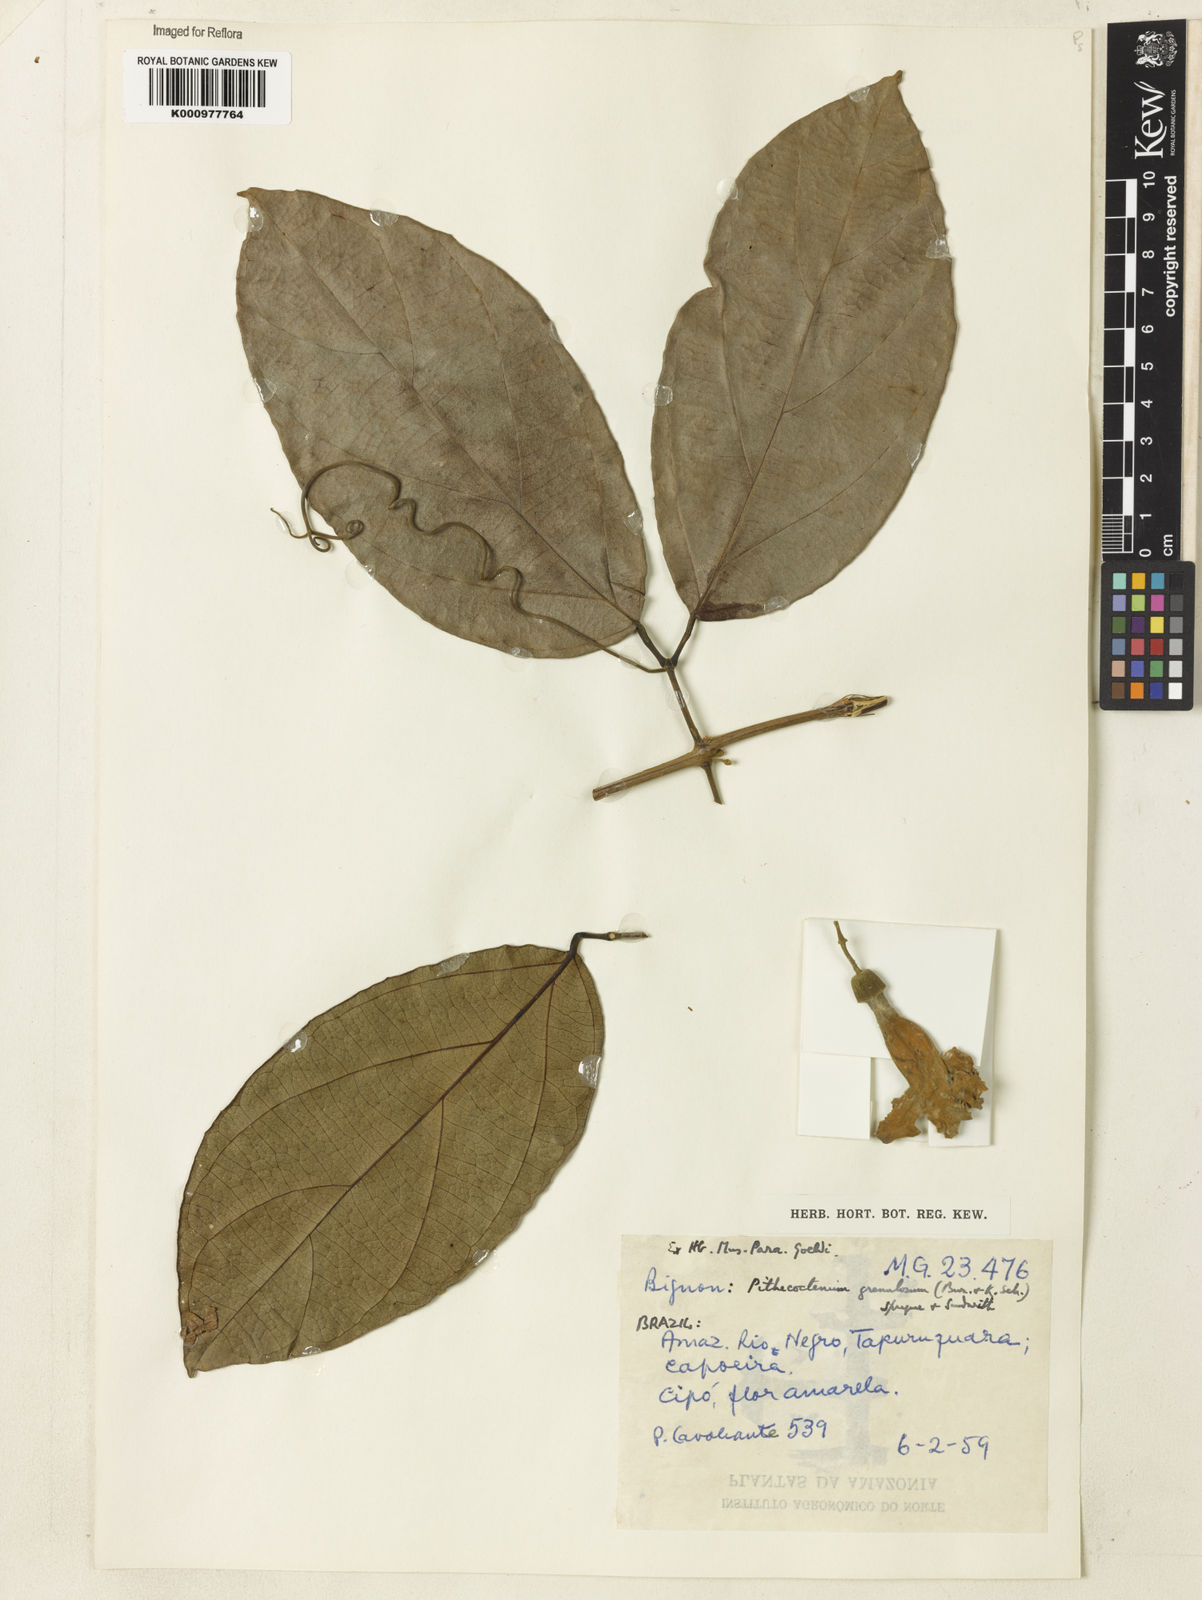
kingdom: Plantae
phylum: Tracheophyta
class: Magnoliopsida
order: Lamiales
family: Bignoniaceae
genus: Amphilophium
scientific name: Amphilophium granulosum
